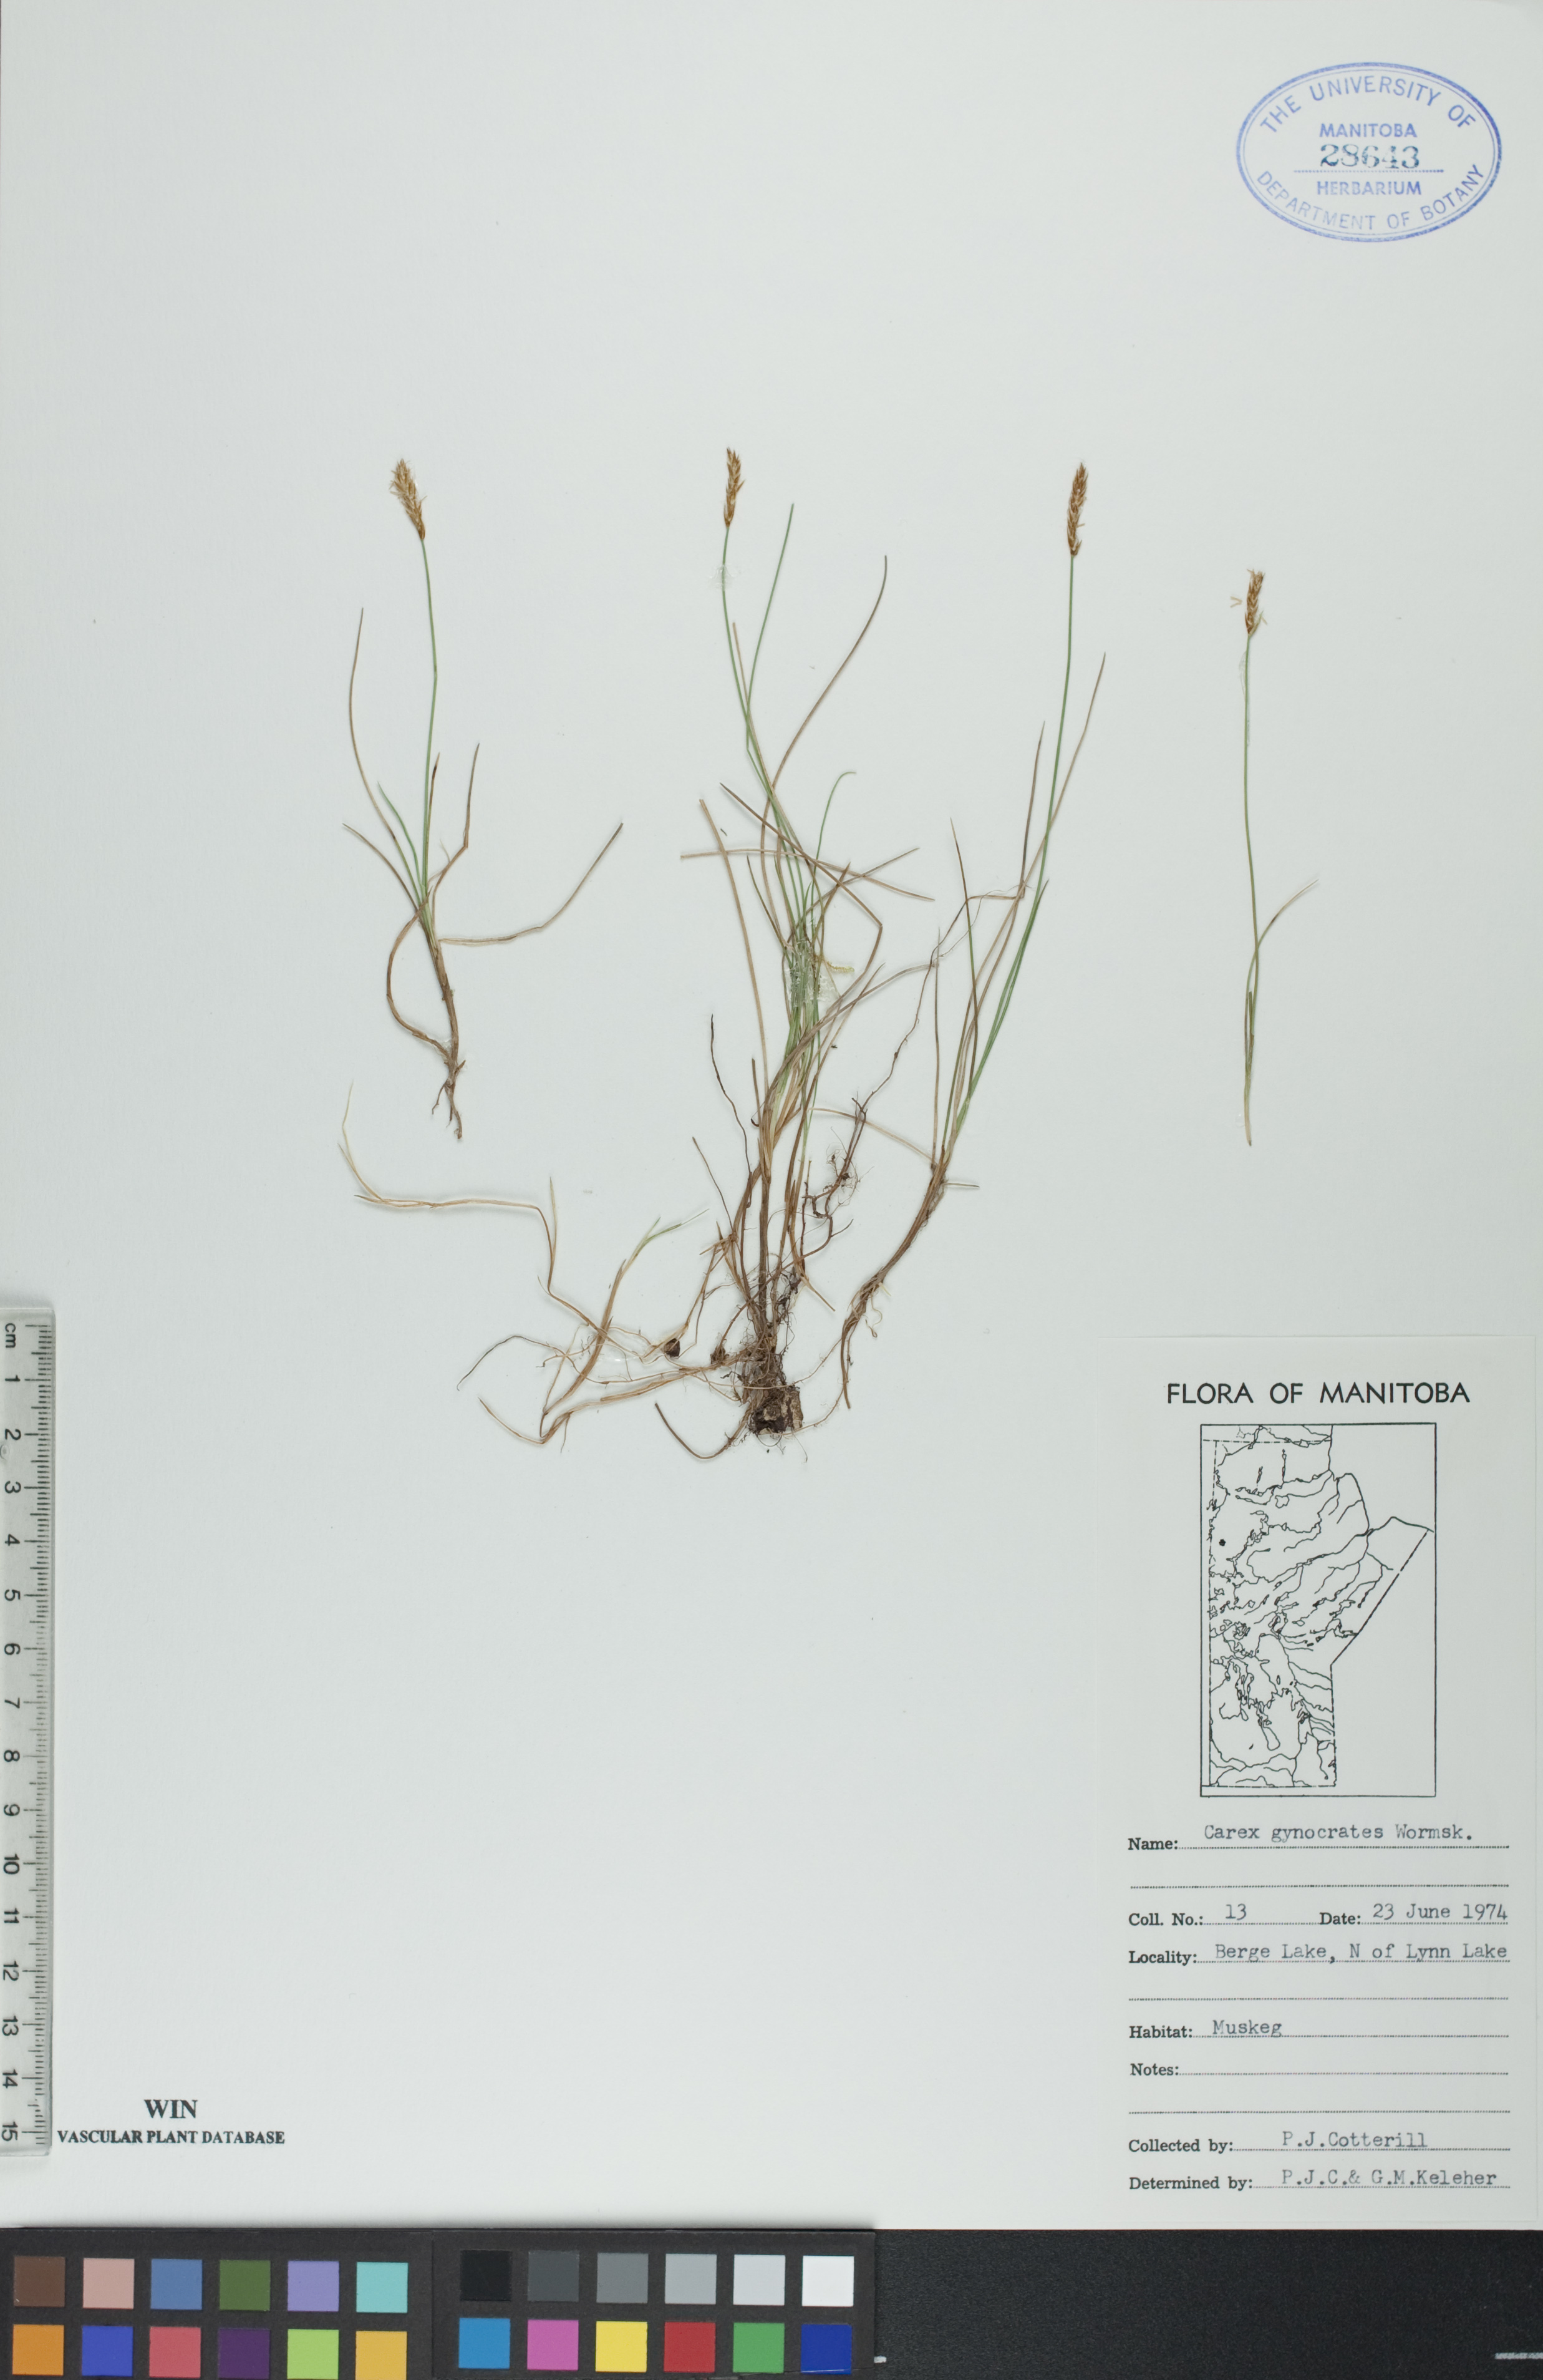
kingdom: Plantae
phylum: Tracheophyta
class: Liliopsida
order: Poales
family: Cyperaceae
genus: Carex
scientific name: Carex nardina
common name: Nard sedge
